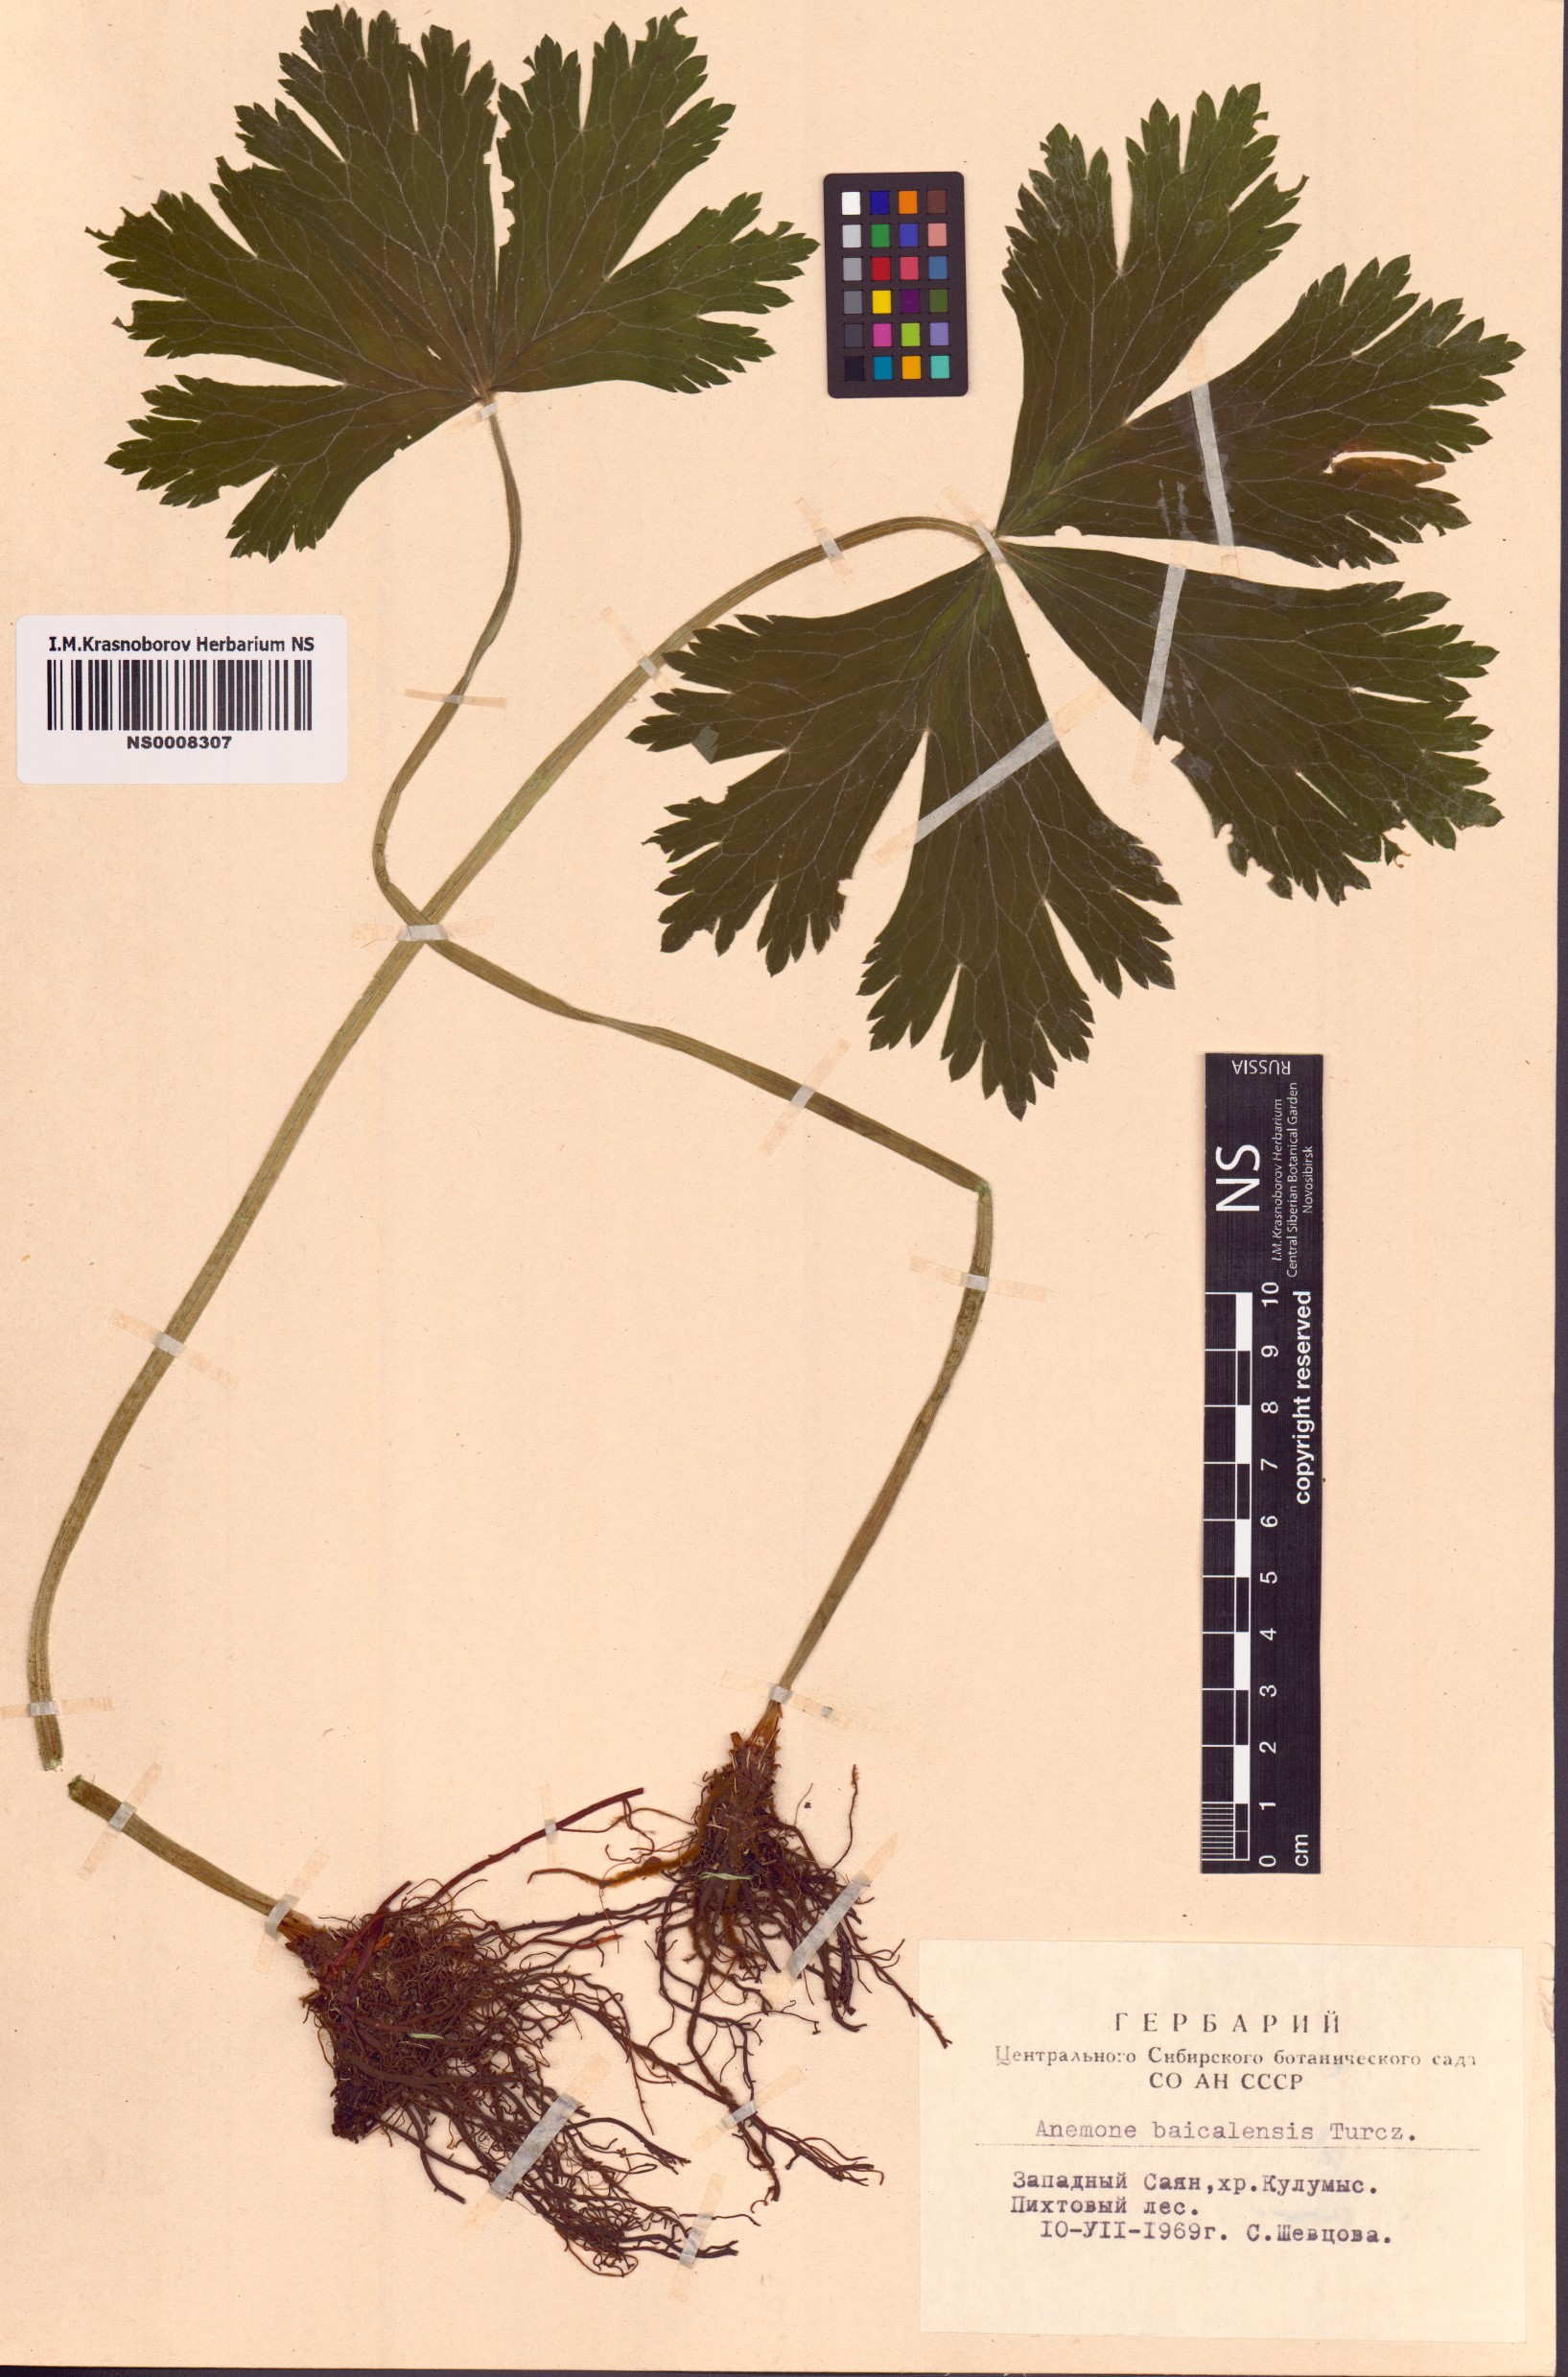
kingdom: Plantae
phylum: Tracheophyta
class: Magnoliopsida
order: Ranunculales
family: Ranunculaceae
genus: Anemonastrum
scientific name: Anemonastrum baicalense
